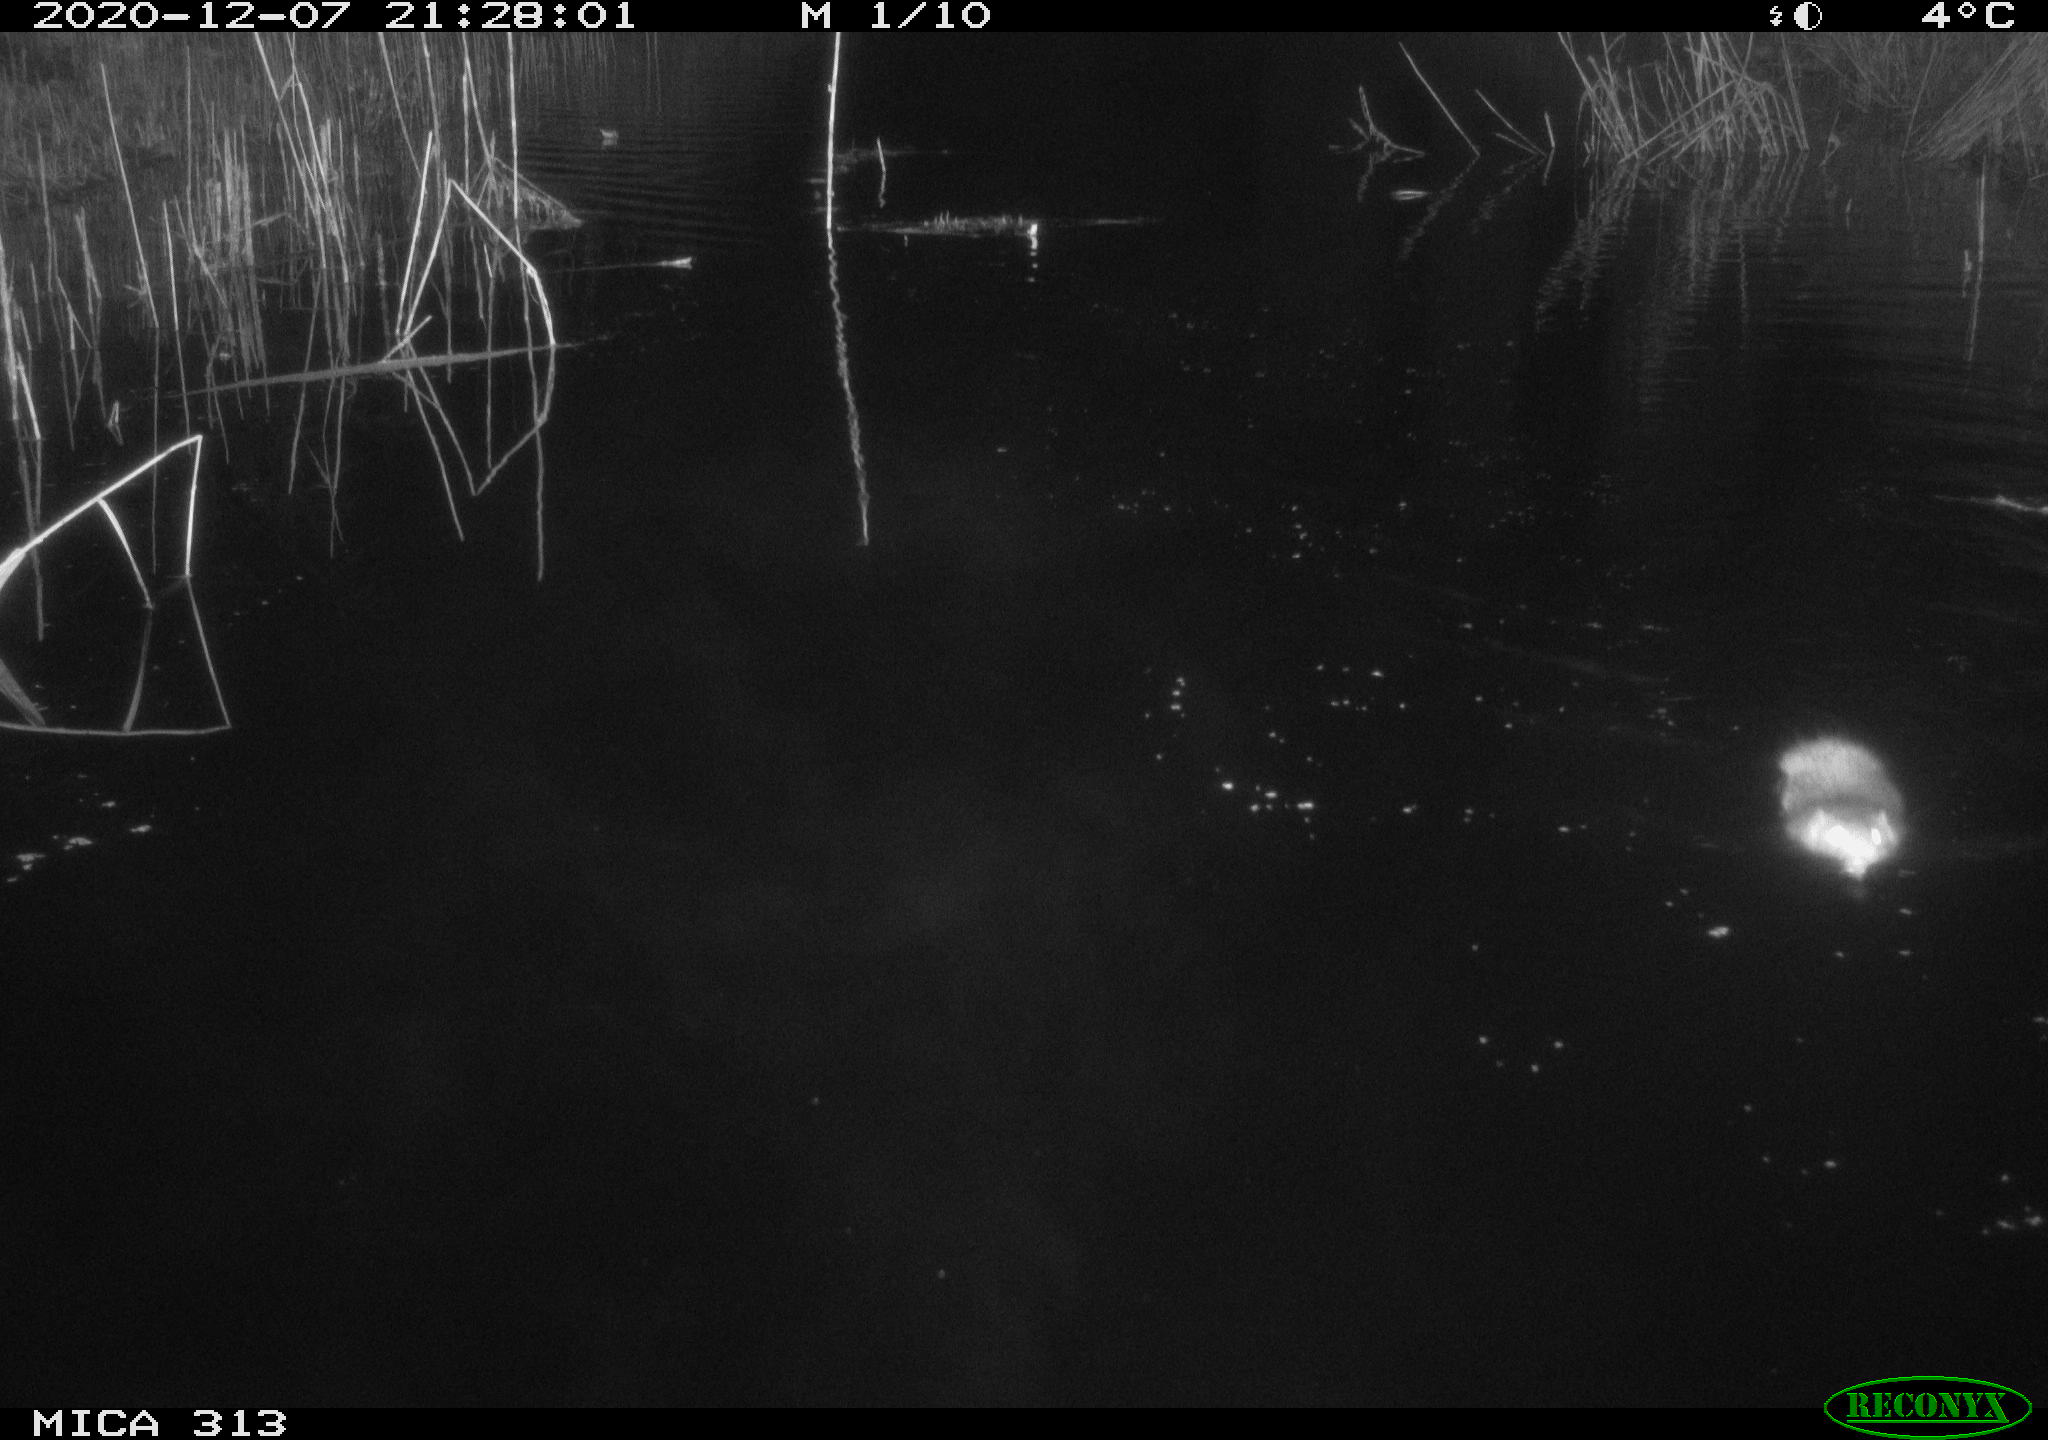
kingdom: Animalia
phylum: Chordata
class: Mammalia
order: Rodentia
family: Muridae
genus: Rattus
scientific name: Rattus norvegicus
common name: Brown rat
